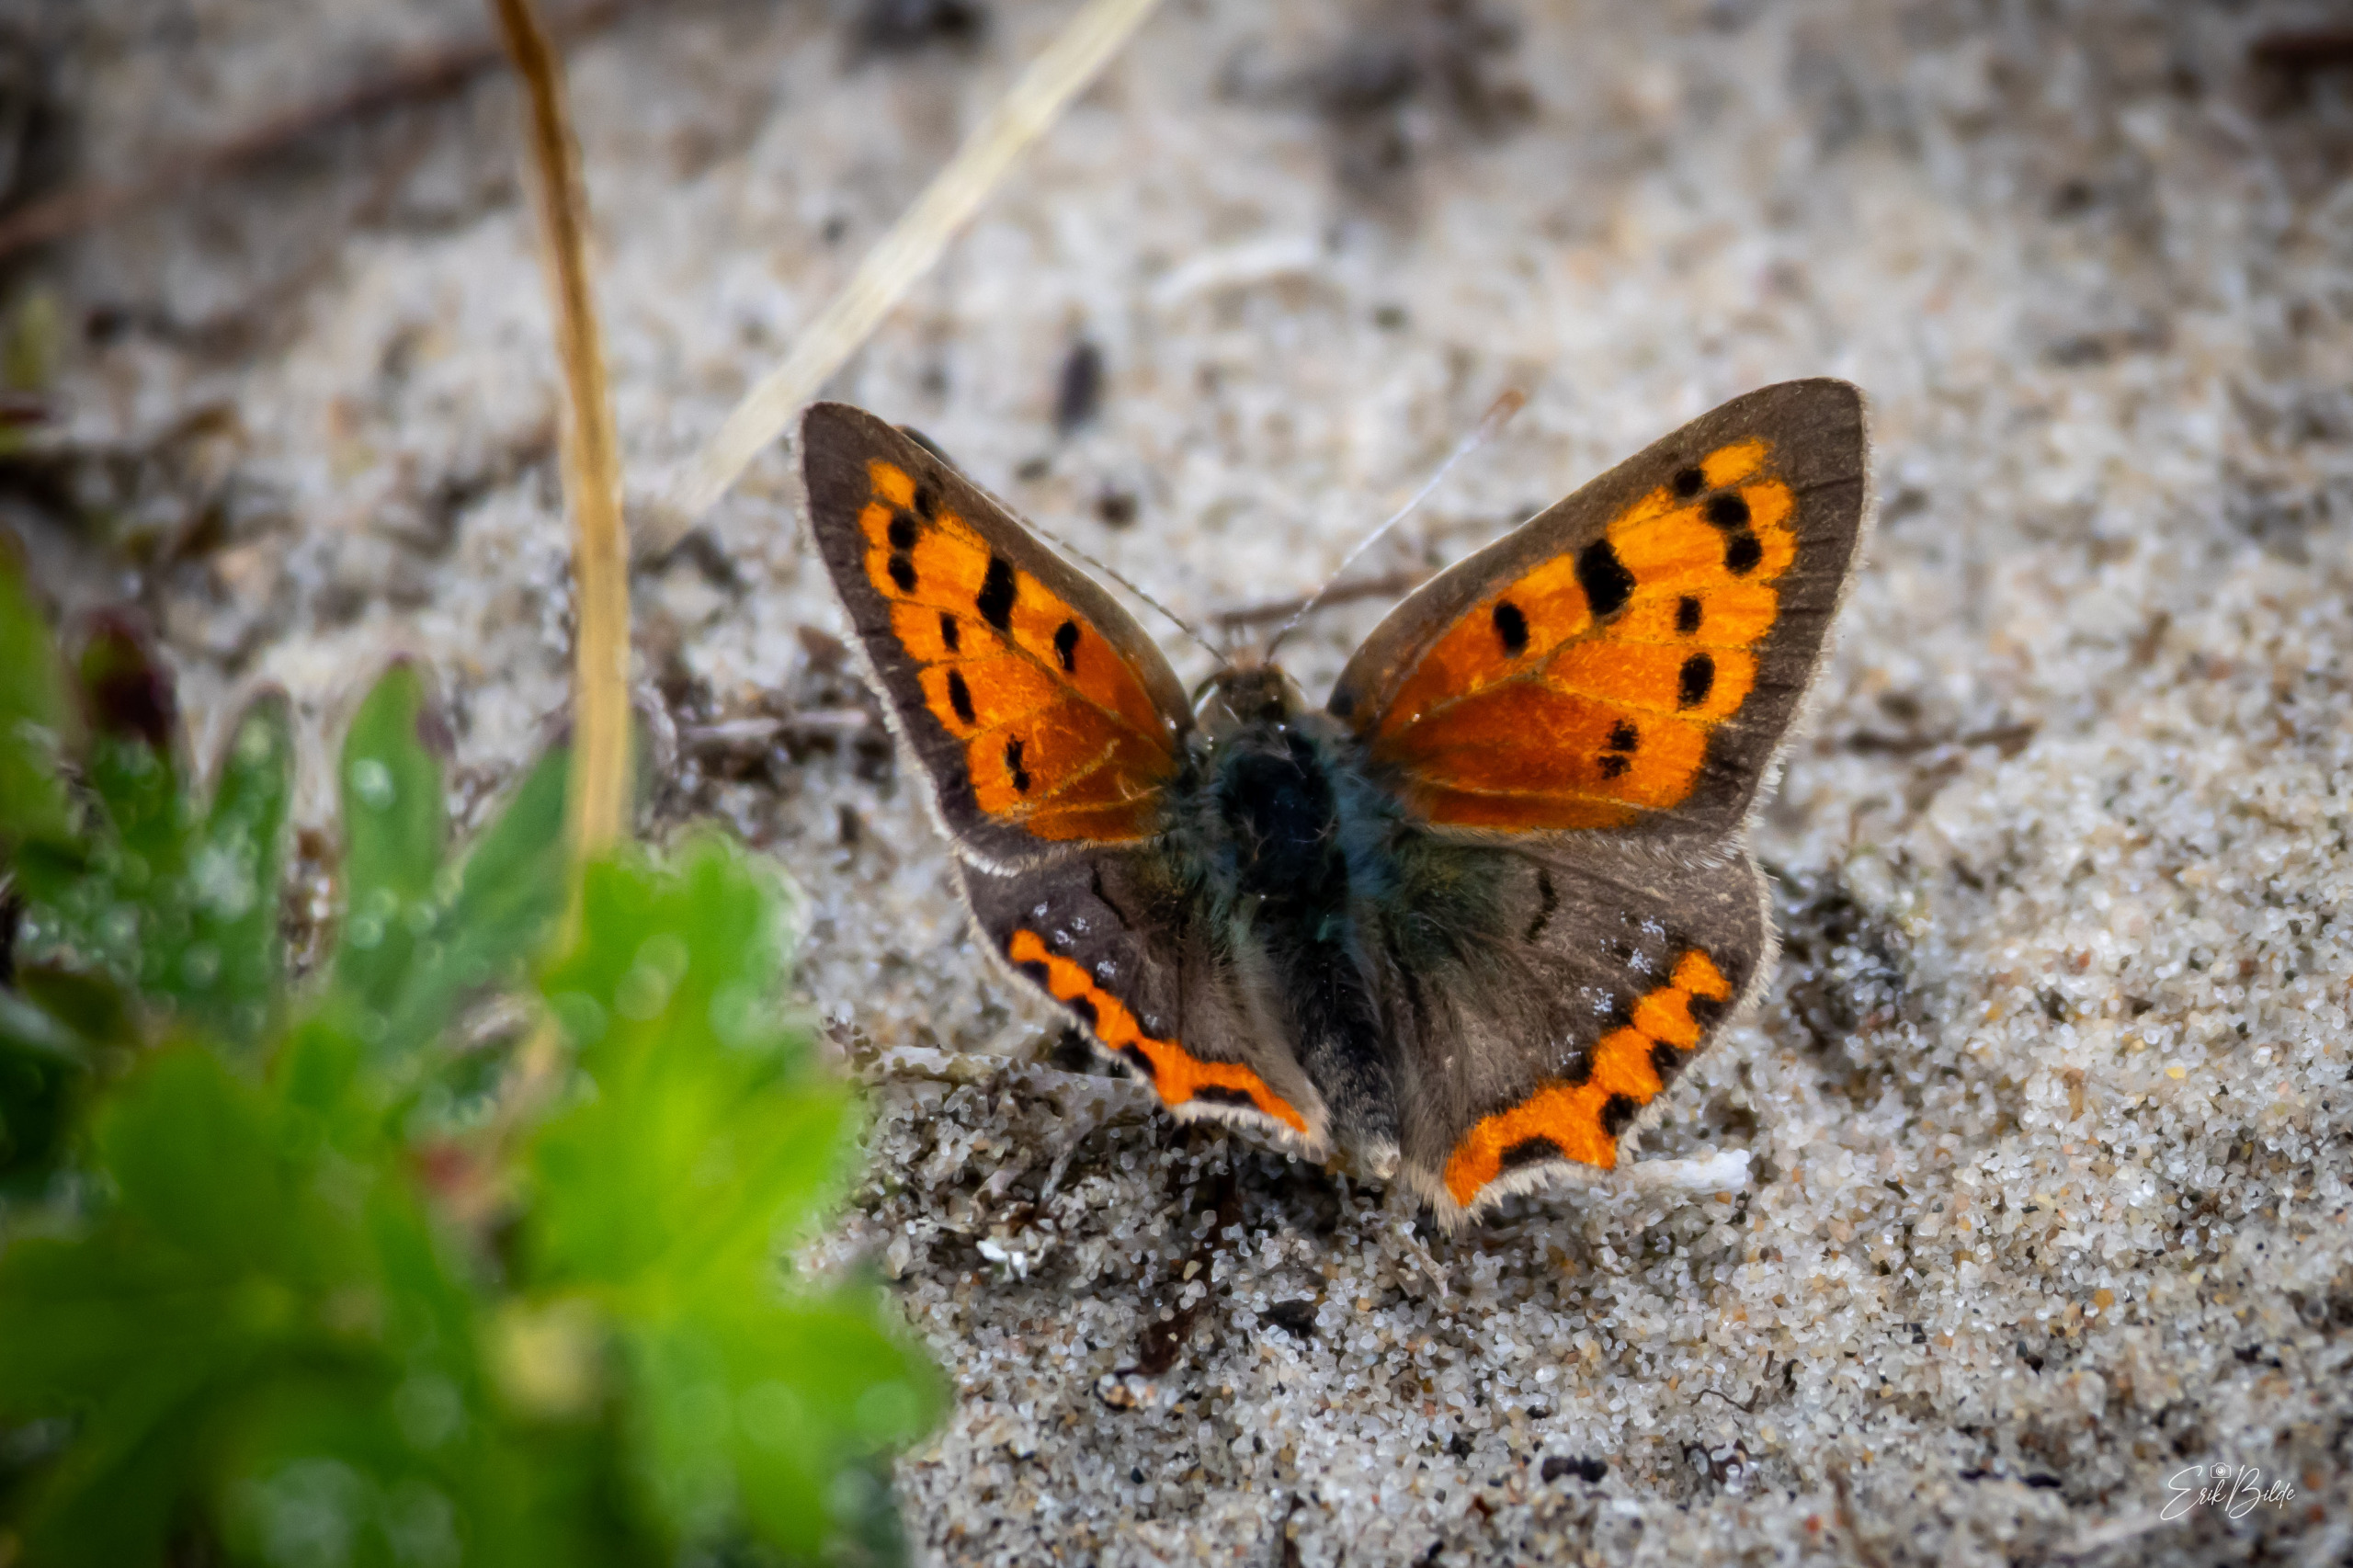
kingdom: Animalia
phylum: Arthropoda
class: Insecta
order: Lepidoptera
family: Lycaenidae
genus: Lycaena
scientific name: Lycaena phlaeas
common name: Lille ildfugl
